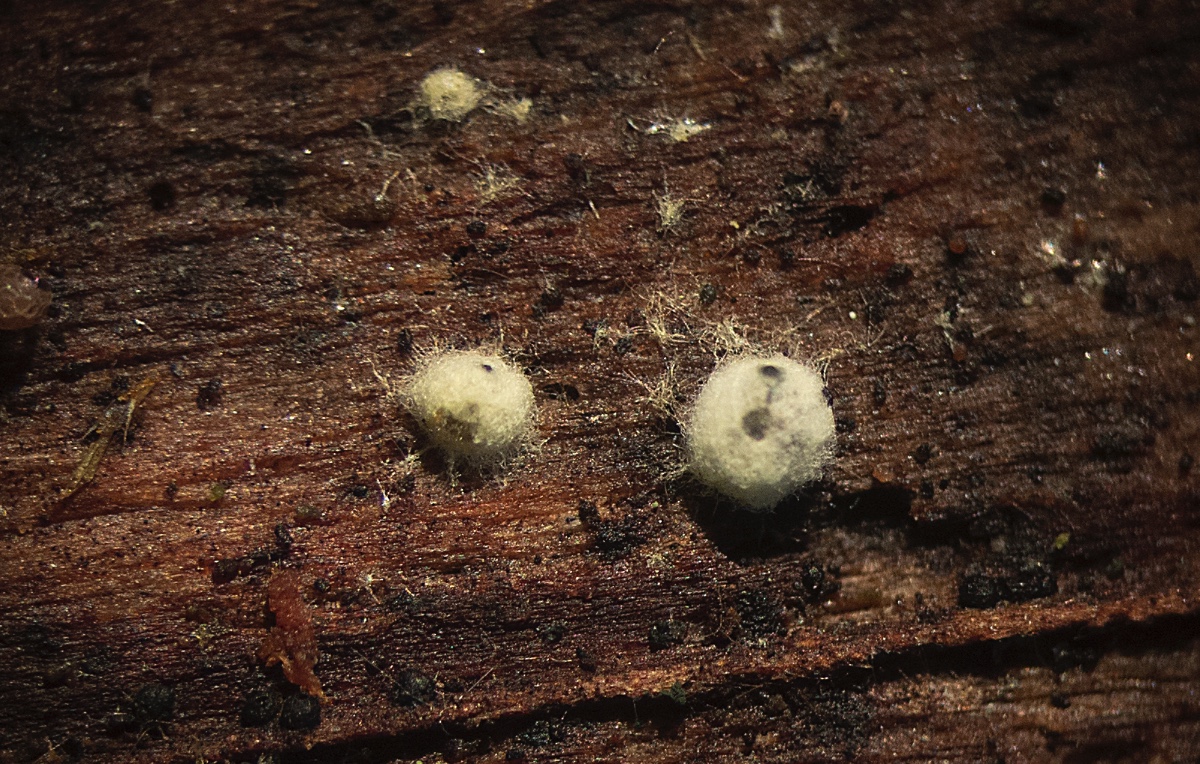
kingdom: Fungi
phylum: Ascomycota
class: Sordariomycetes
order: Sordariales
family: Neoschizotheciaceae
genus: Cercophora
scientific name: Cercophora sulphurella
